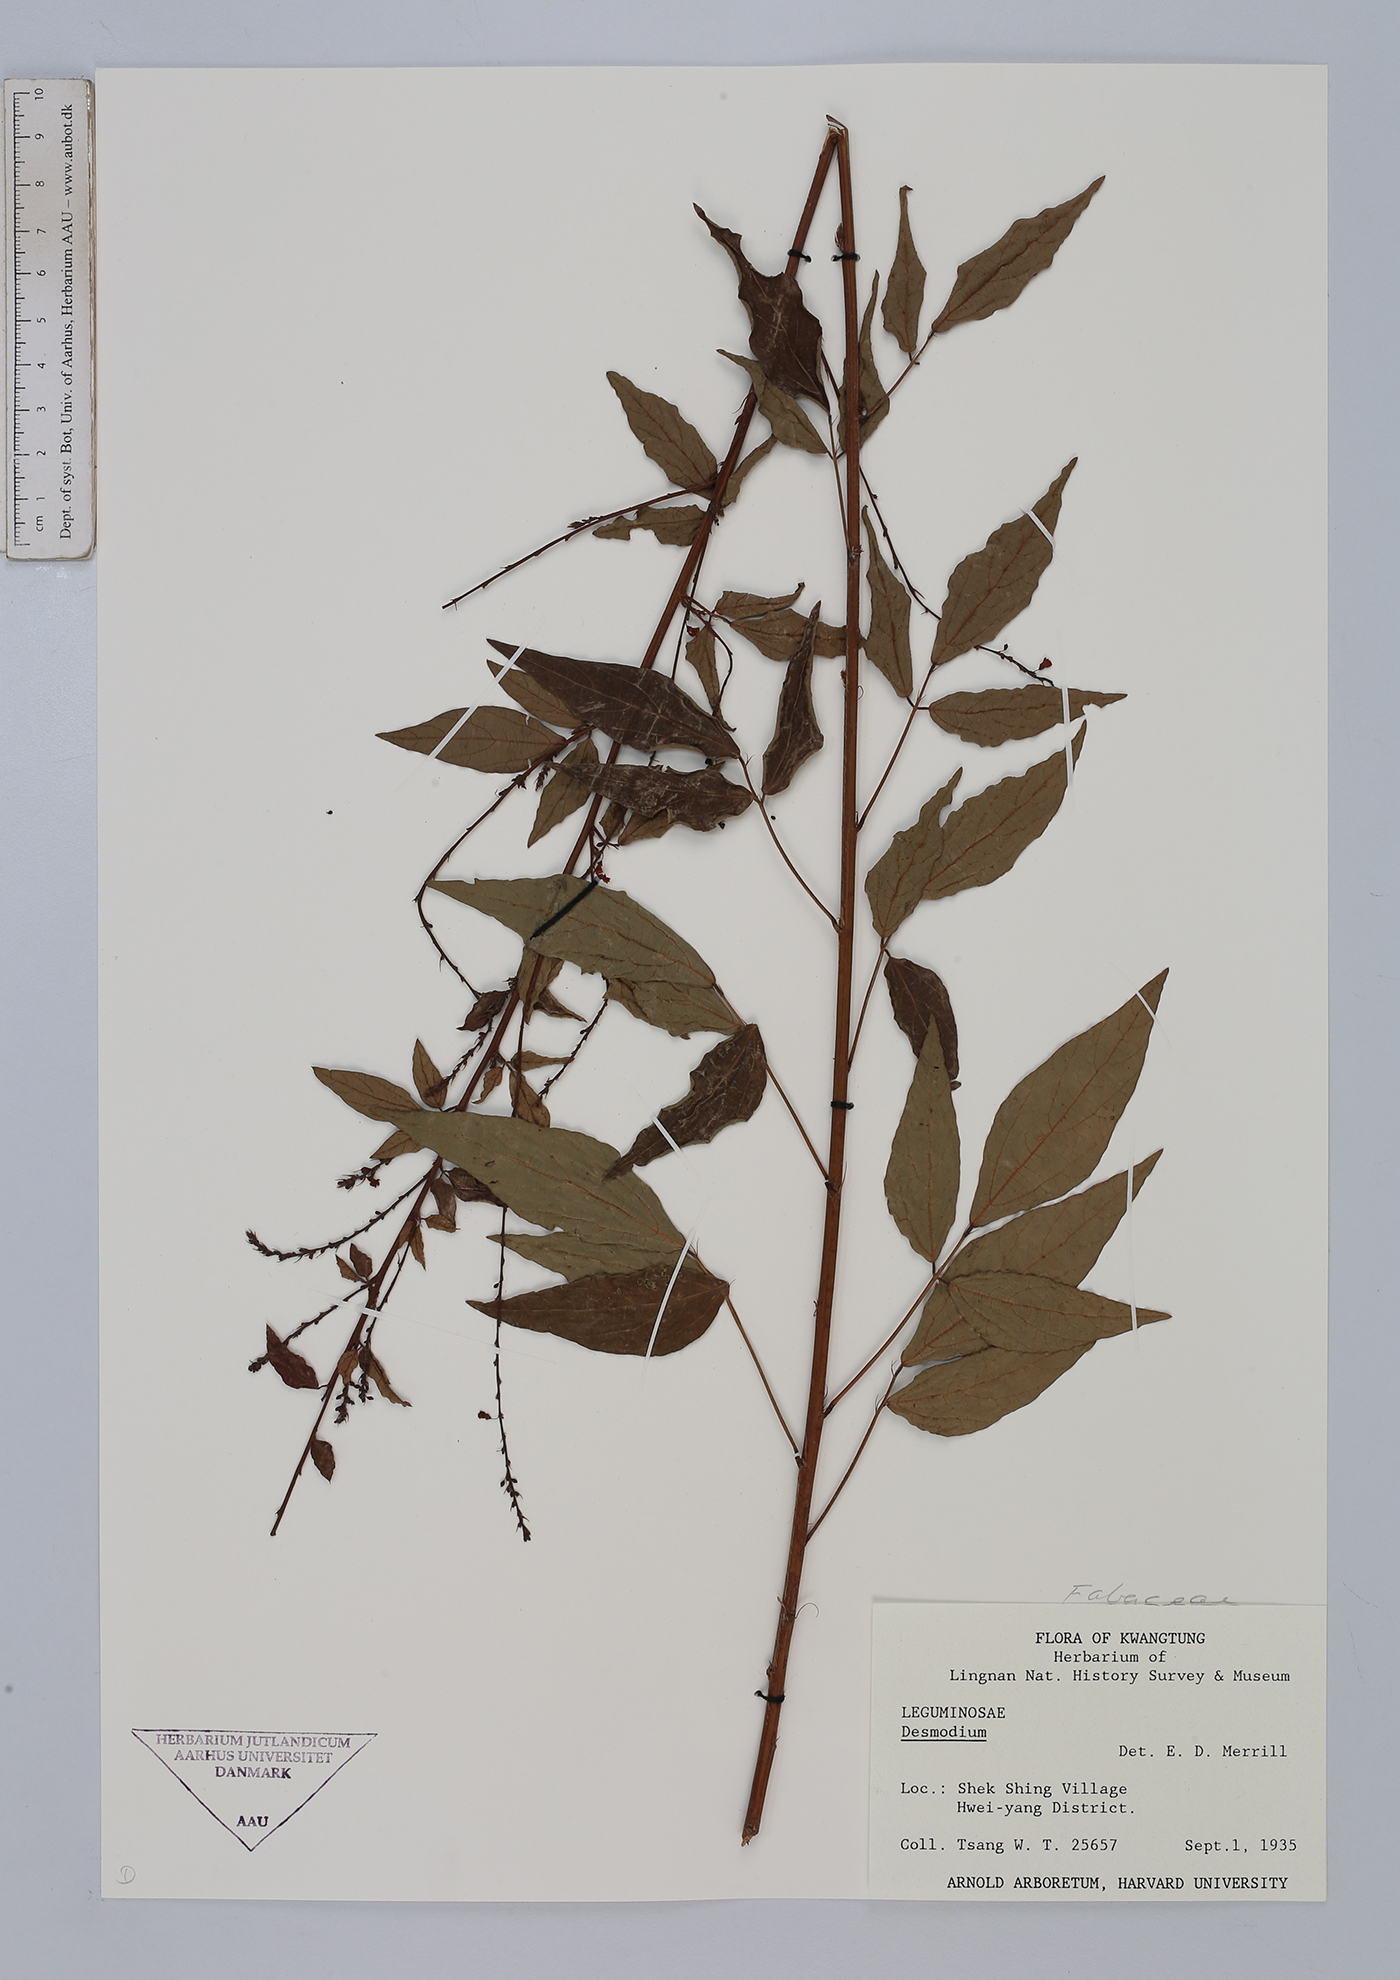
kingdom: Plantae
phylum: Tracheophyta
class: Magnoliopsida
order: Fabales
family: Fabaceae
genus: Desmodium
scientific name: Desmodium
